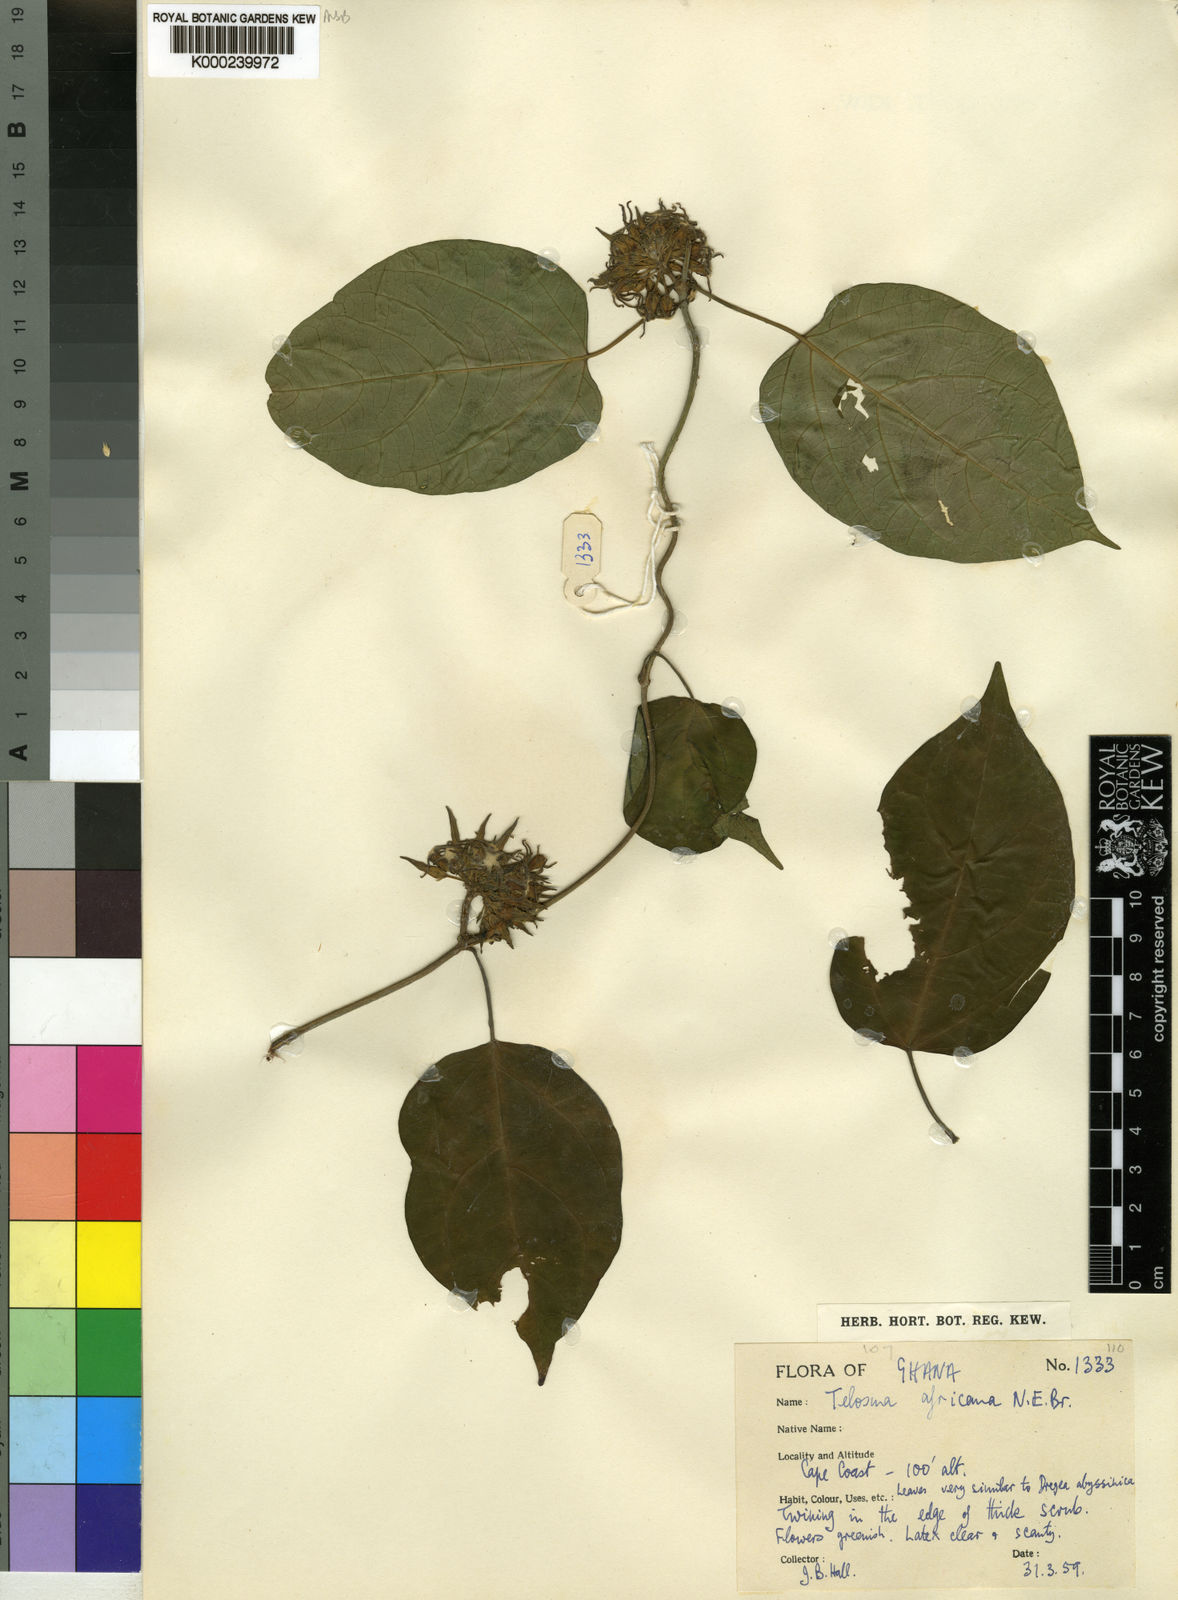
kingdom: Plantae
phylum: Tracheophyta
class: Magnoliopsida
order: Gentianales
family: Apocynaceae
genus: Telosma
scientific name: Telosma africana
